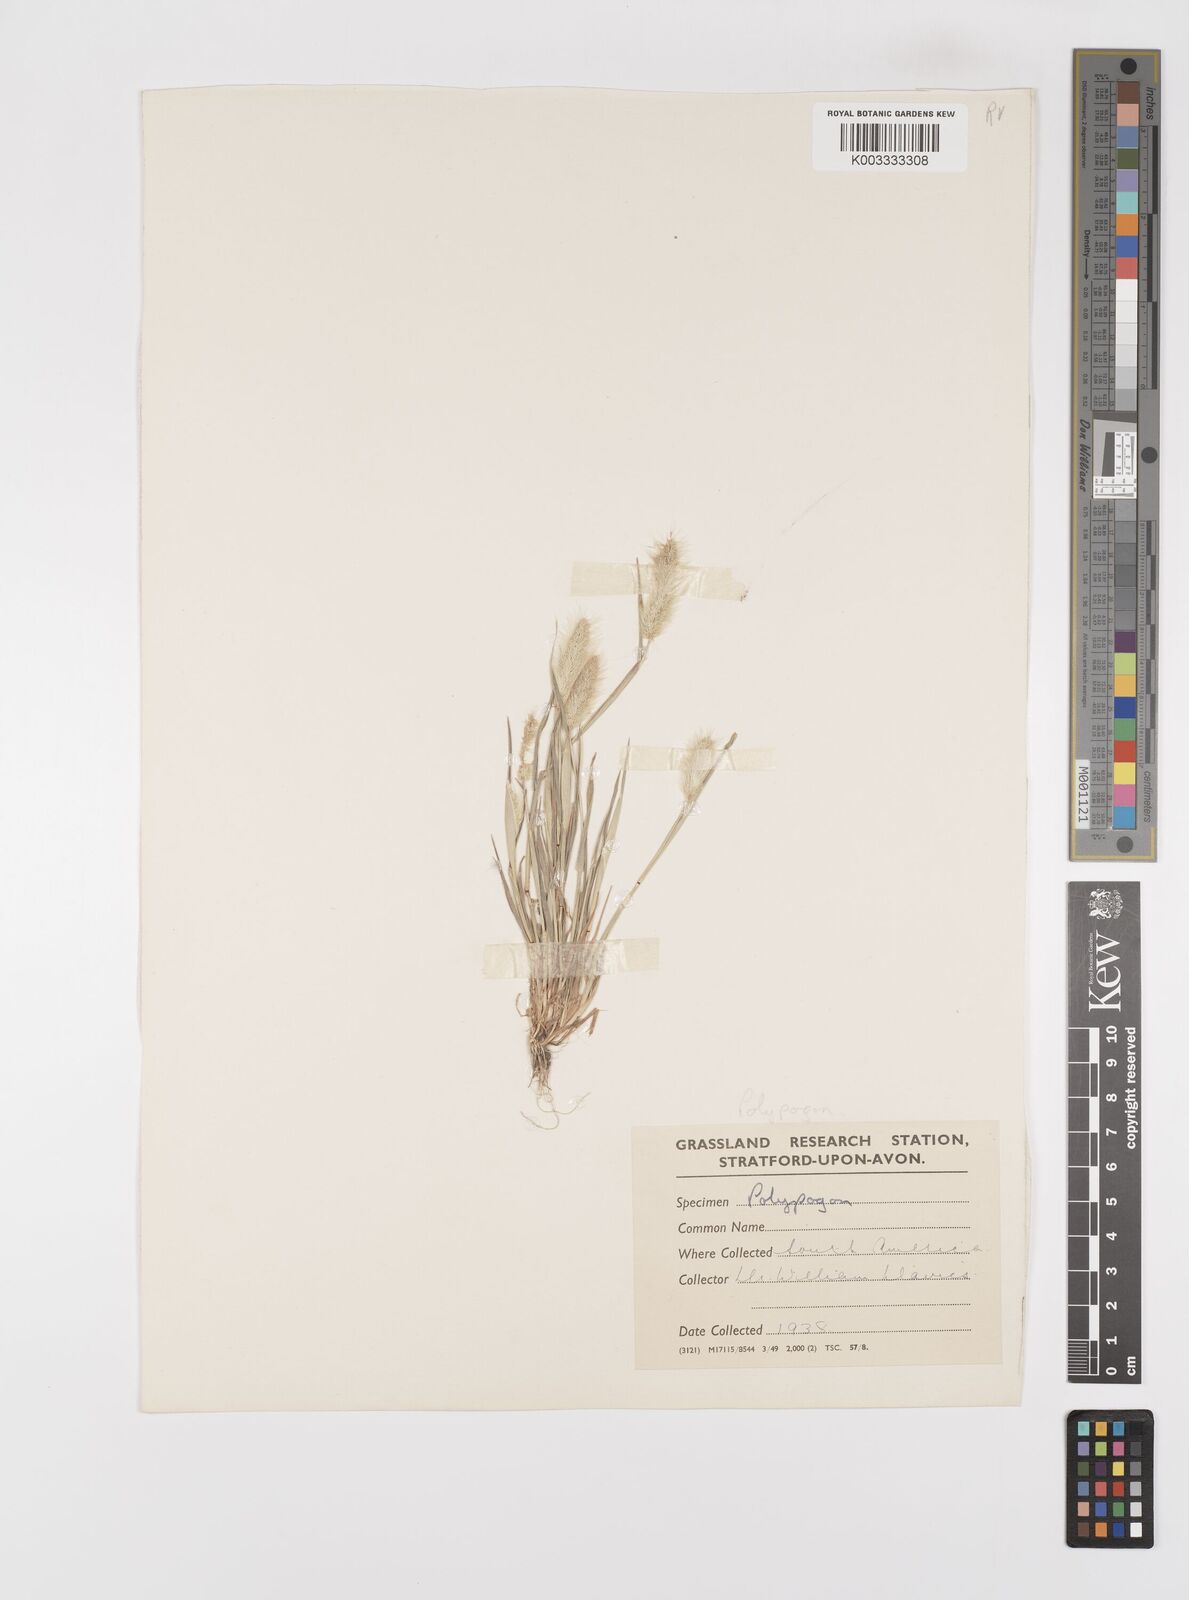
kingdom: Plantae
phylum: Tracheophyta
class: Liliopsida
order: Poales
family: Poaceae
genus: Polypogon
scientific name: Polypogon monspeliensis
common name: Annual rabbitsfoot grass
